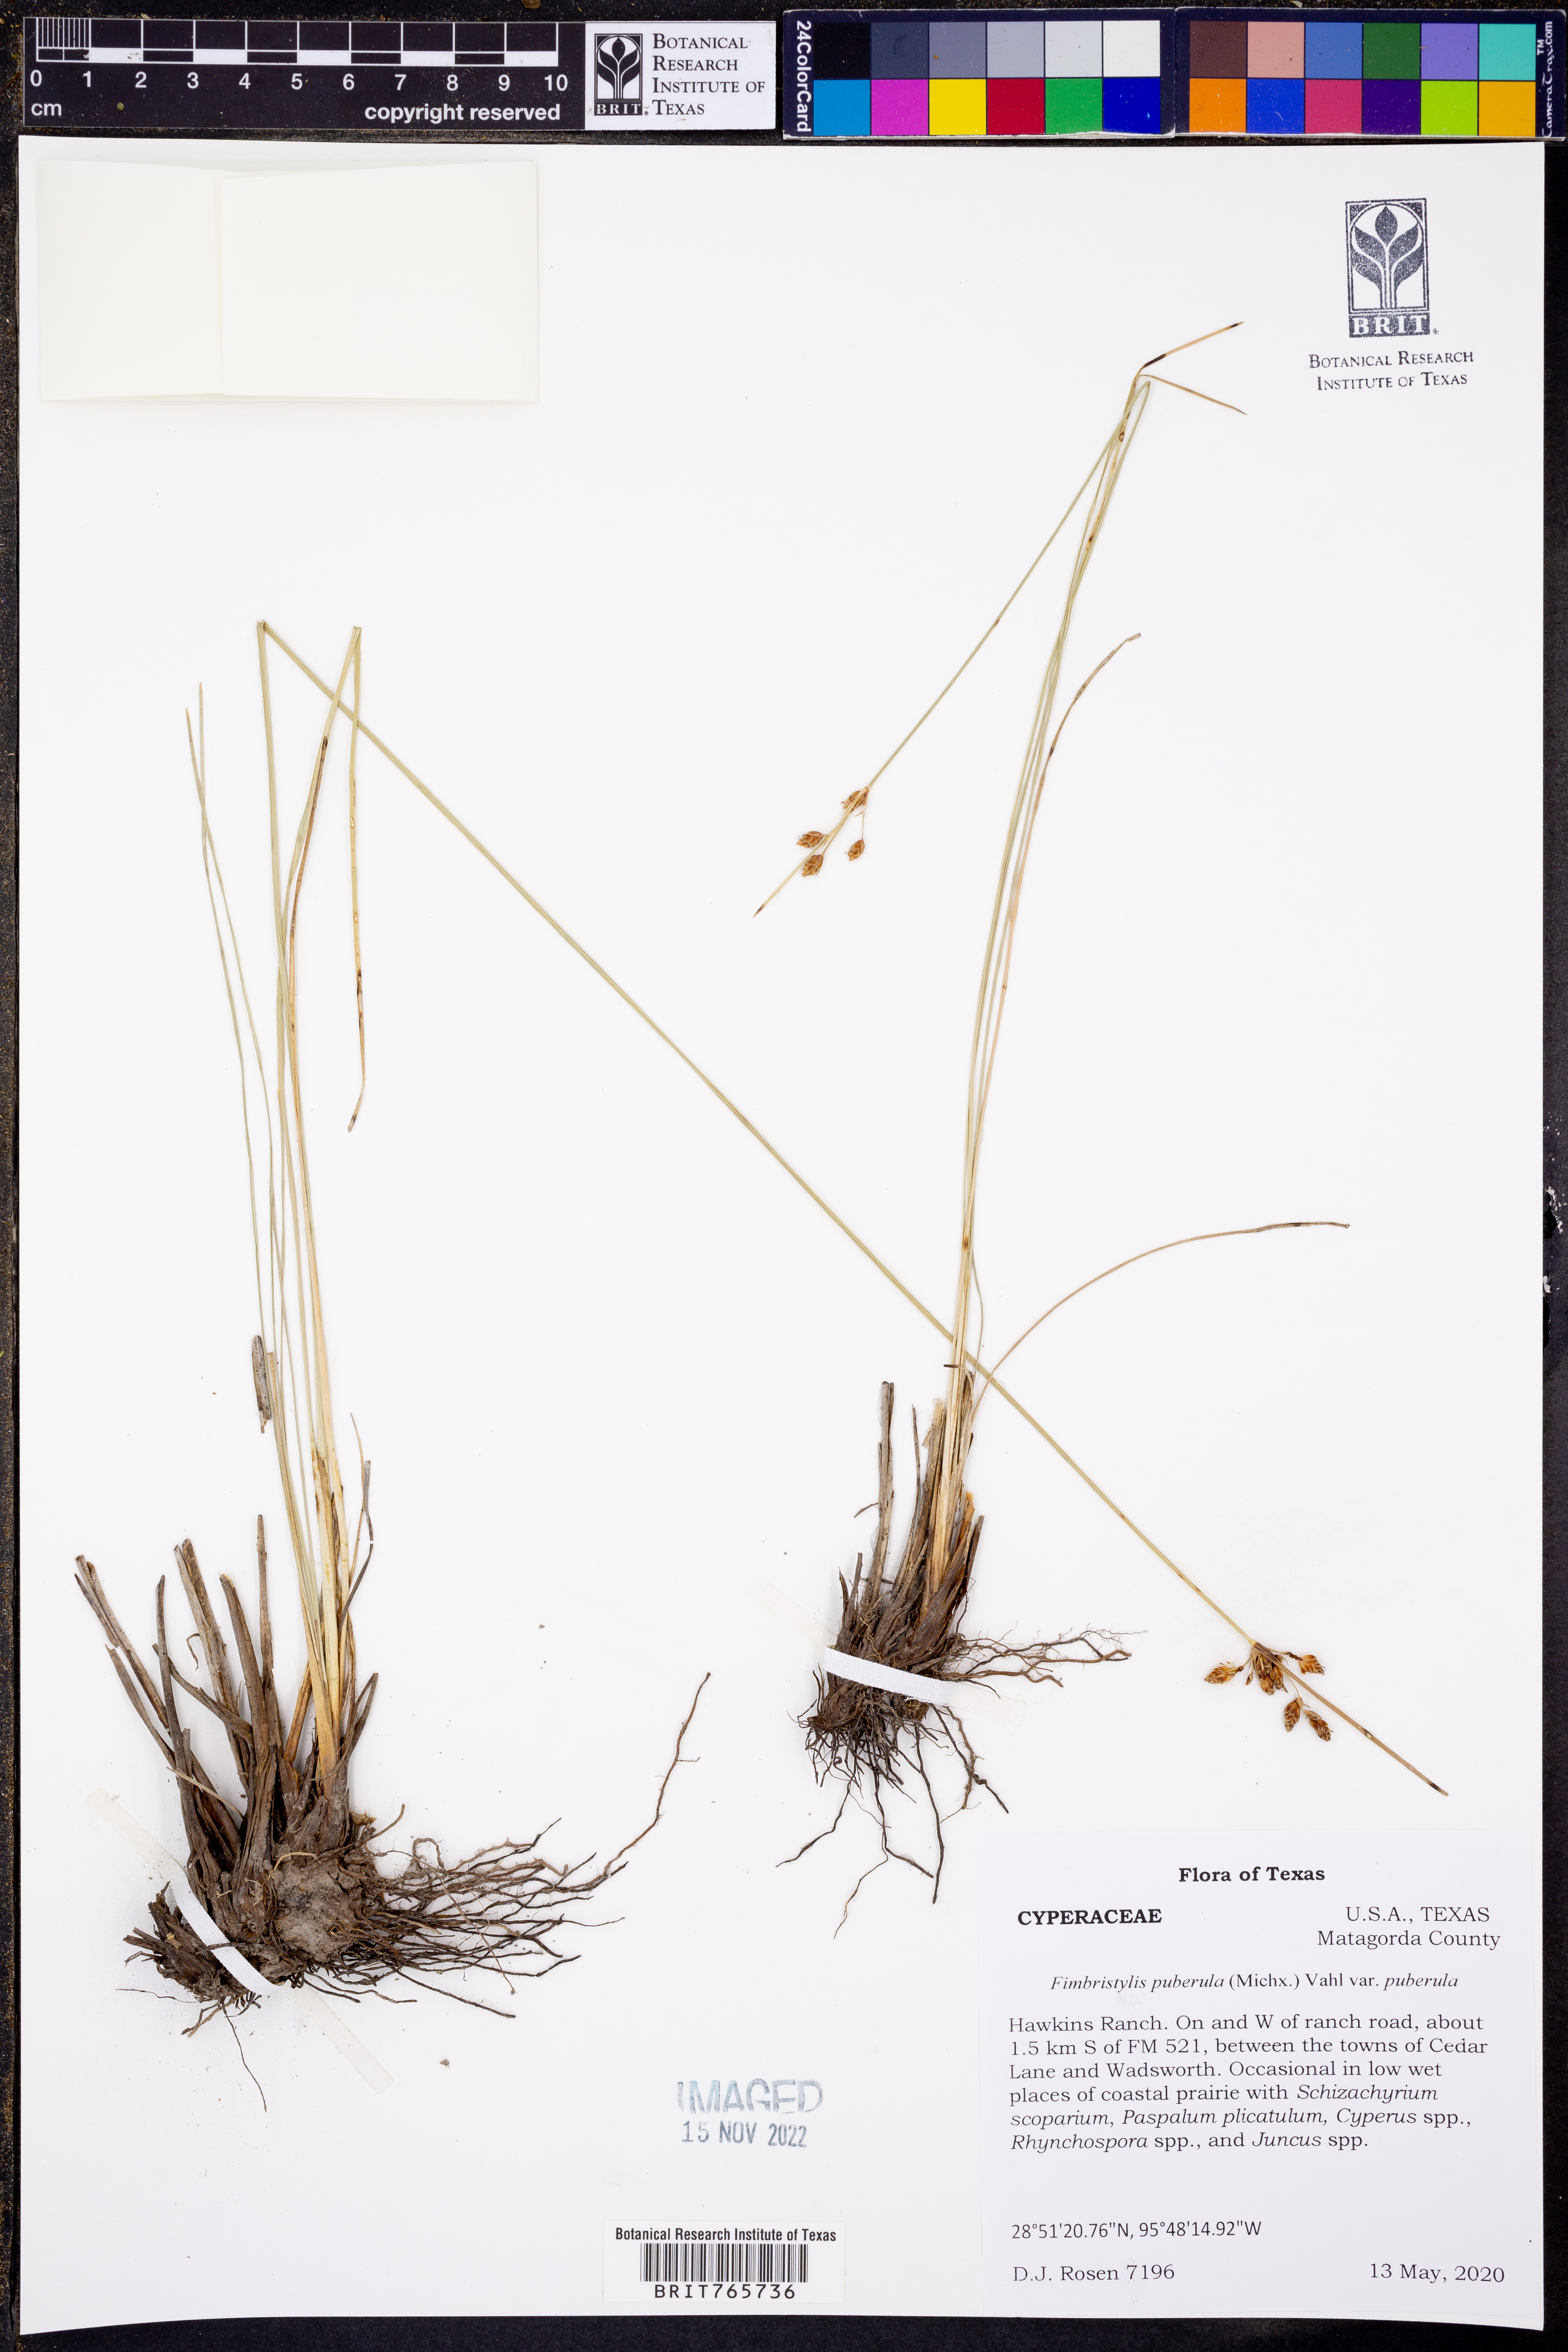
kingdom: Plantae
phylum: Tracheophyta
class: Liliopsida
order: Poales
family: Cyperaceae
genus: Fimbristylis
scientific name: Fimbristylis puberula
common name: Hairy fimbristylis
